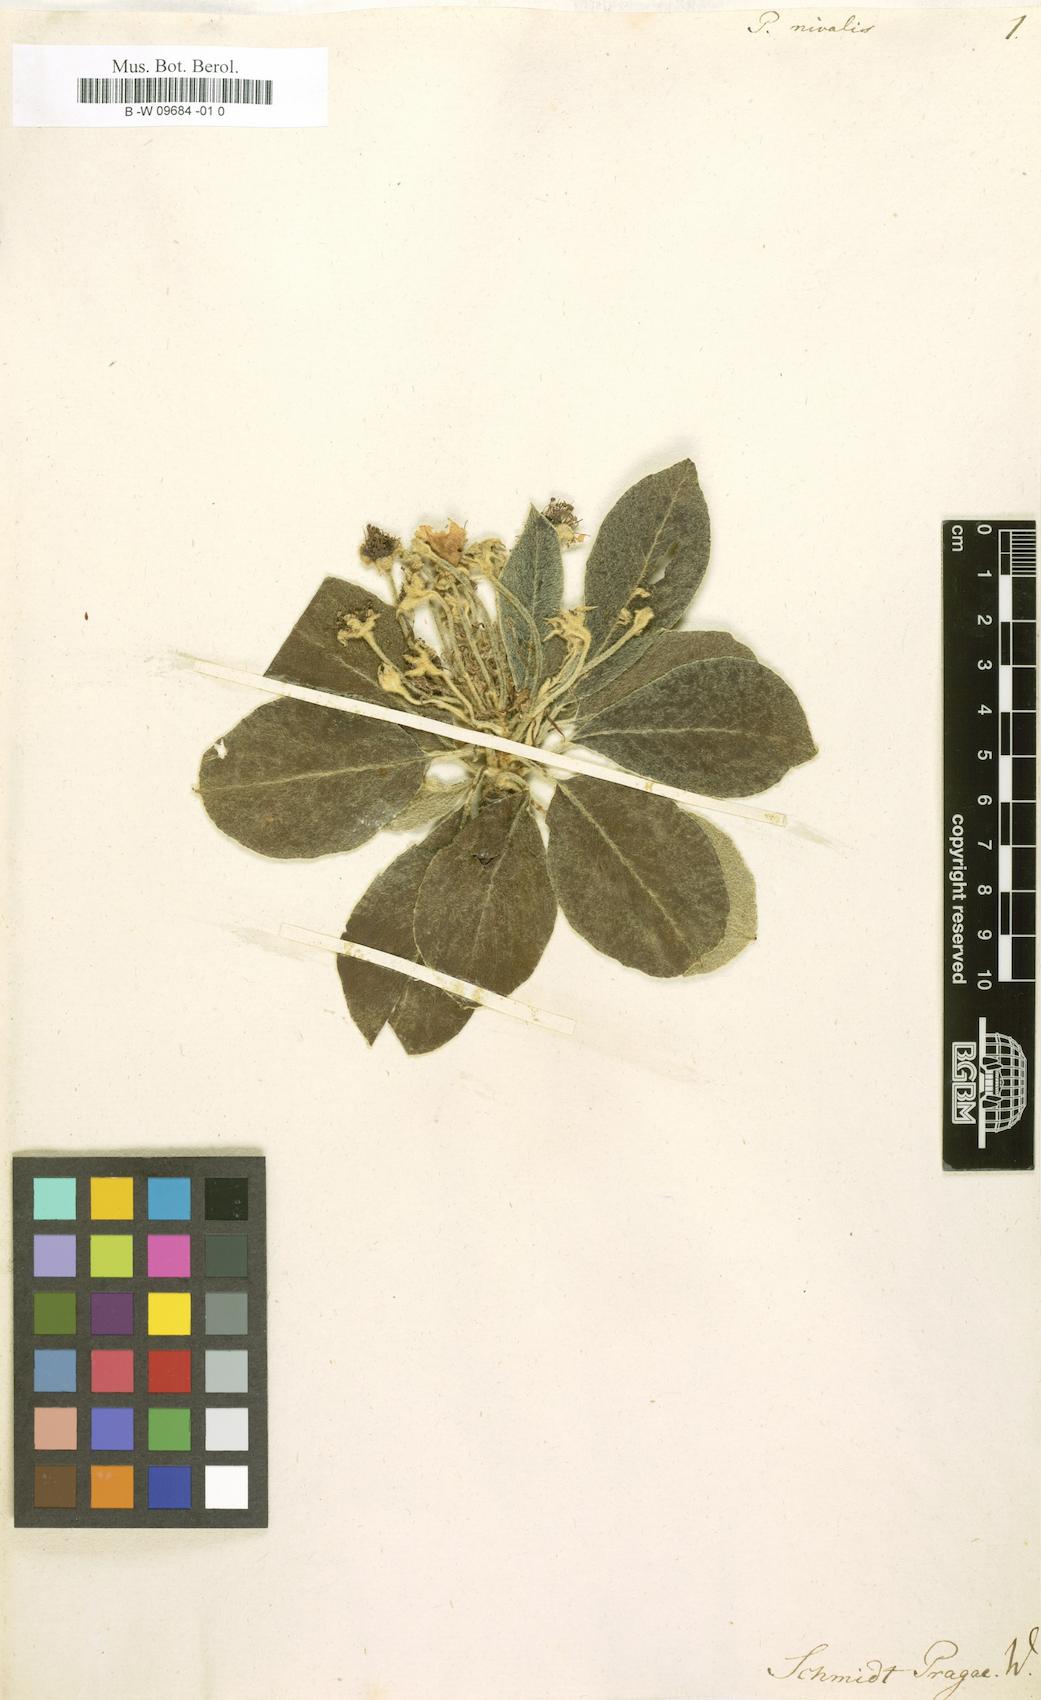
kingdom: Plantae
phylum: Tracheophyta
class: Magnoliopsida
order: Rosales
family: Rosaceae
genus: Pyrus
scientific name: Pyrus nivalis
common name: Snow pear
